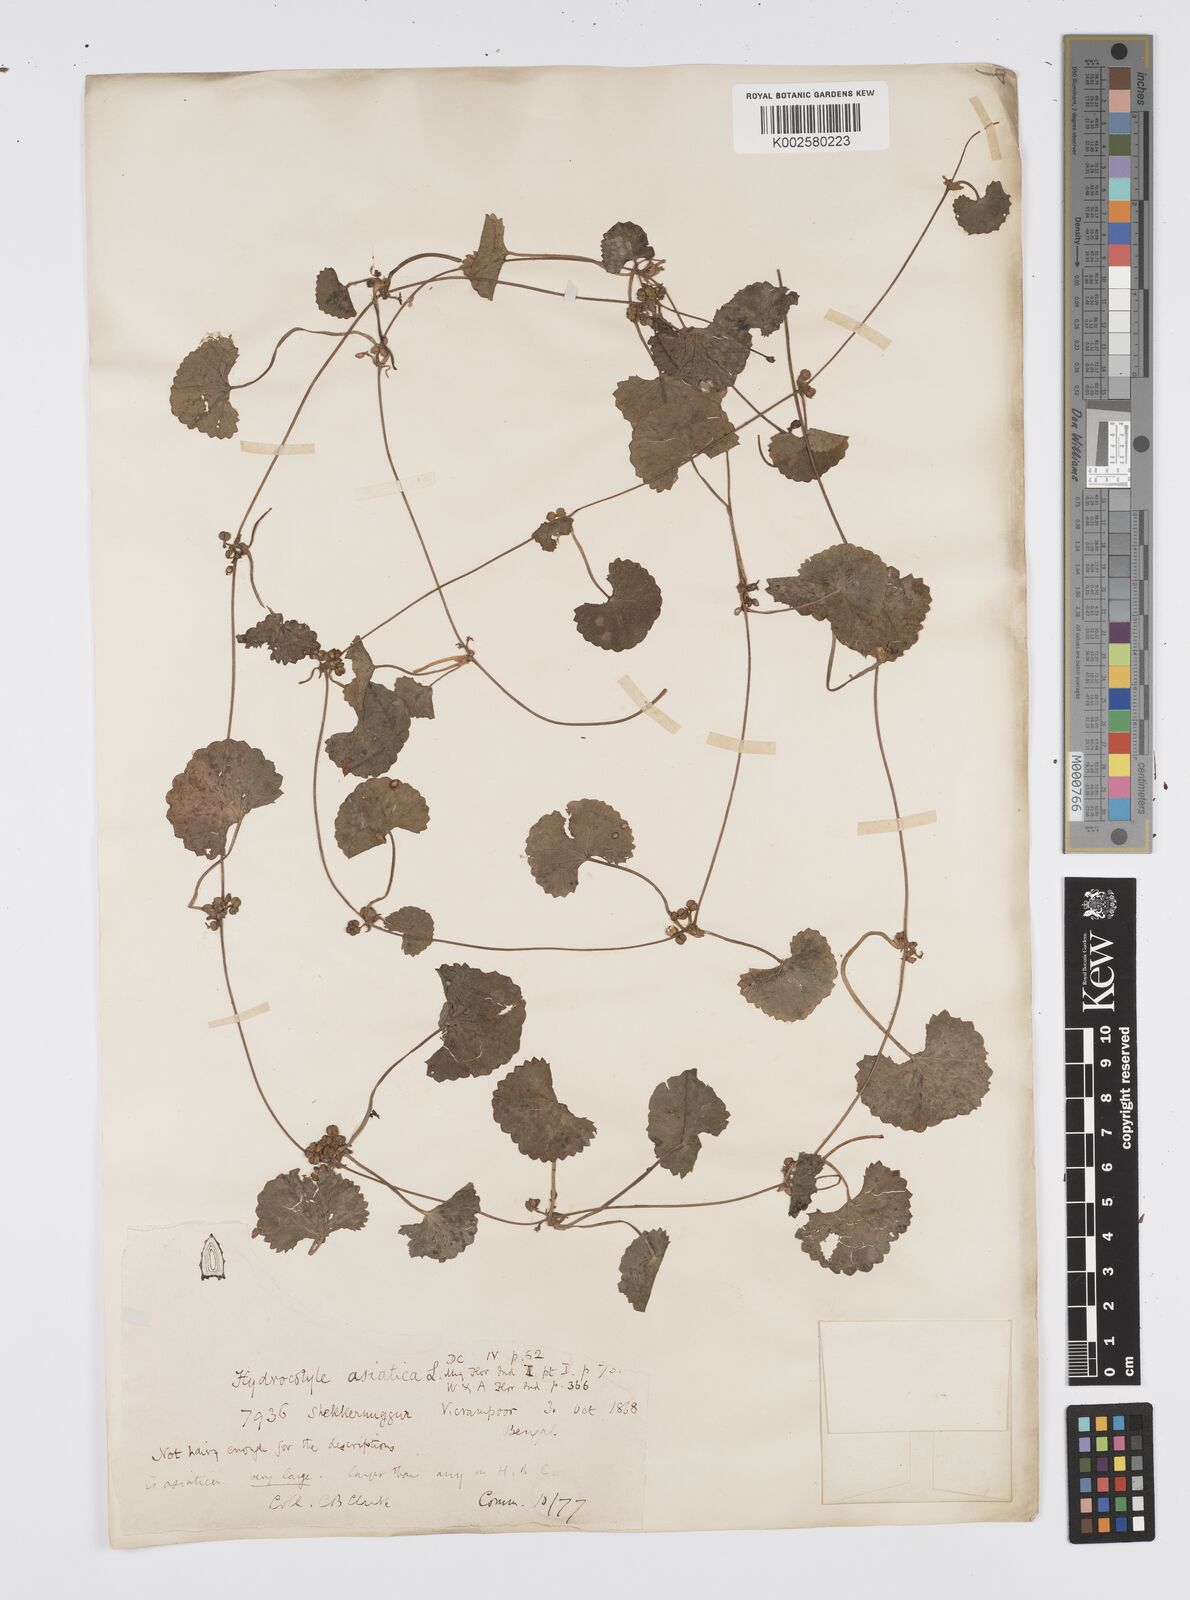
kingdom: Plantae
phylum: Tracheophyta
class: Magnoliopsida
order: Apiales
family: Apiaceae
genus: Centella
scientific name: Centella asiatica
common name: Spadeleaf
